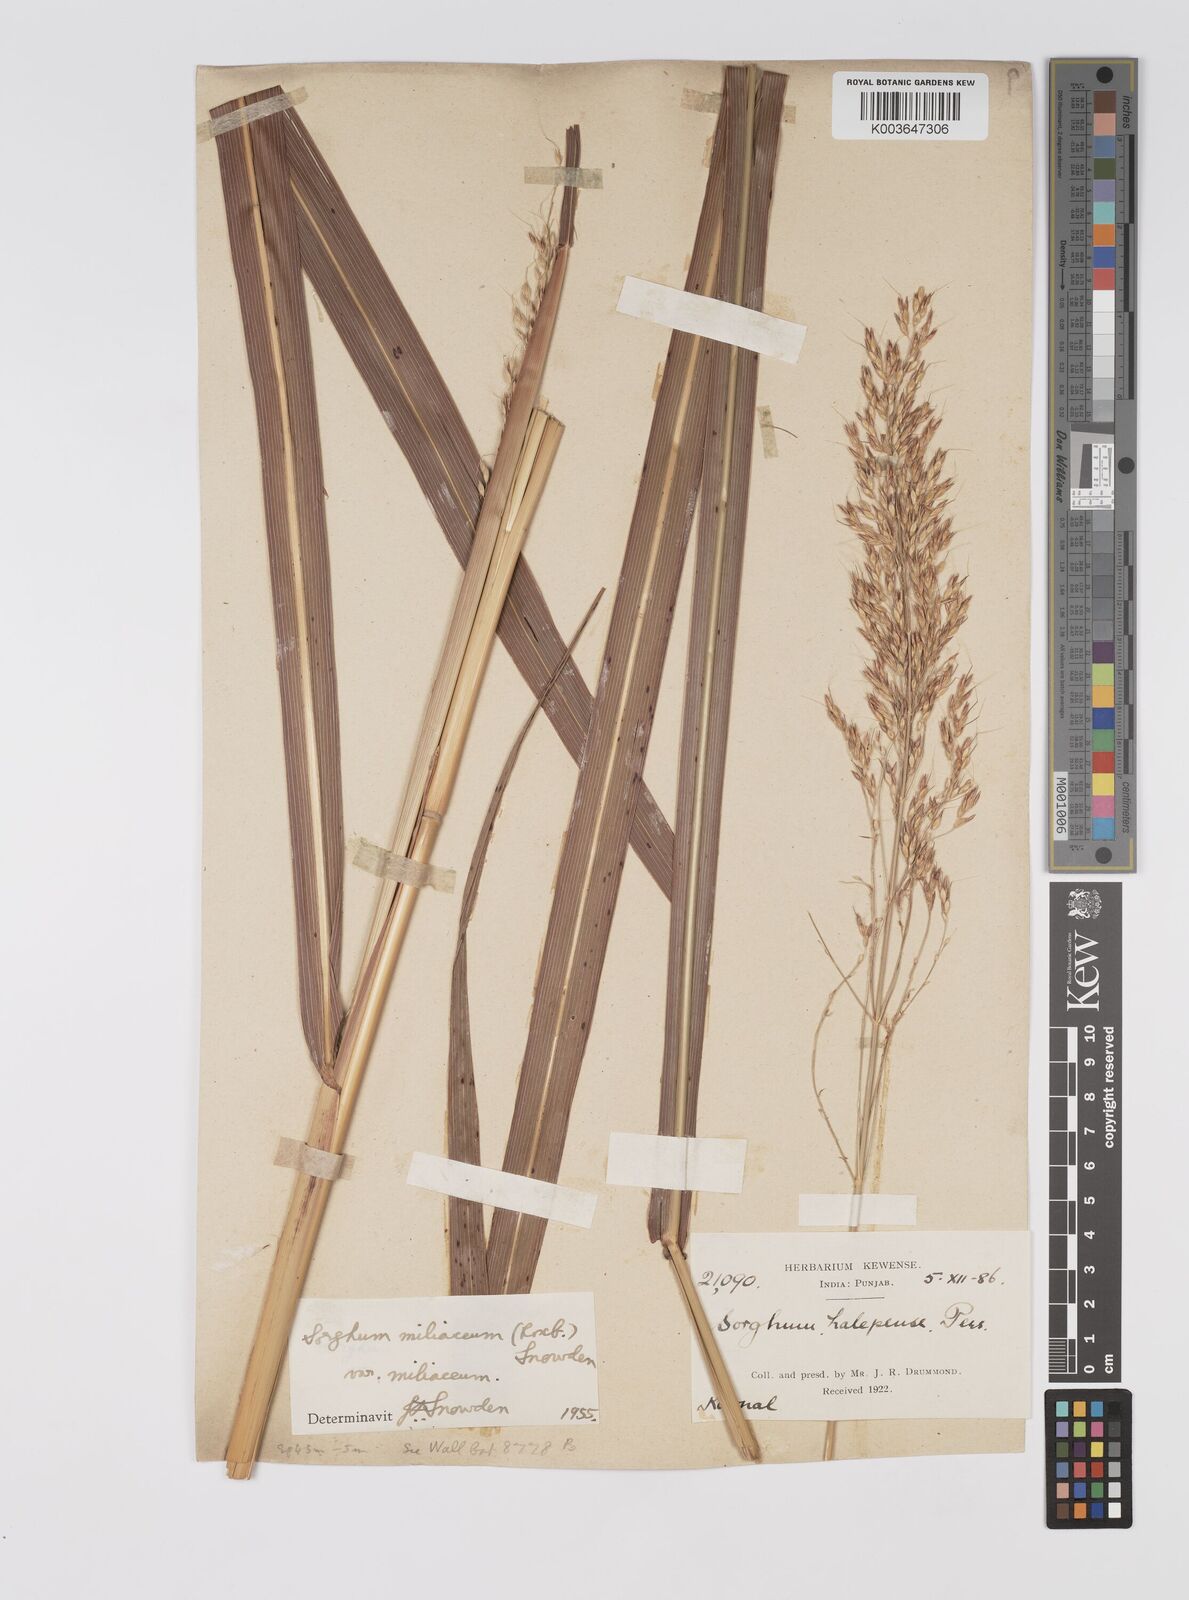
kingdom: Plantae
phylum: Tracheophyta
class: Liliopsida
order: Poales
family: Poaceae
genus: Sorghum
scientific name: Sorghum halepense
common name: Johnson-grass
